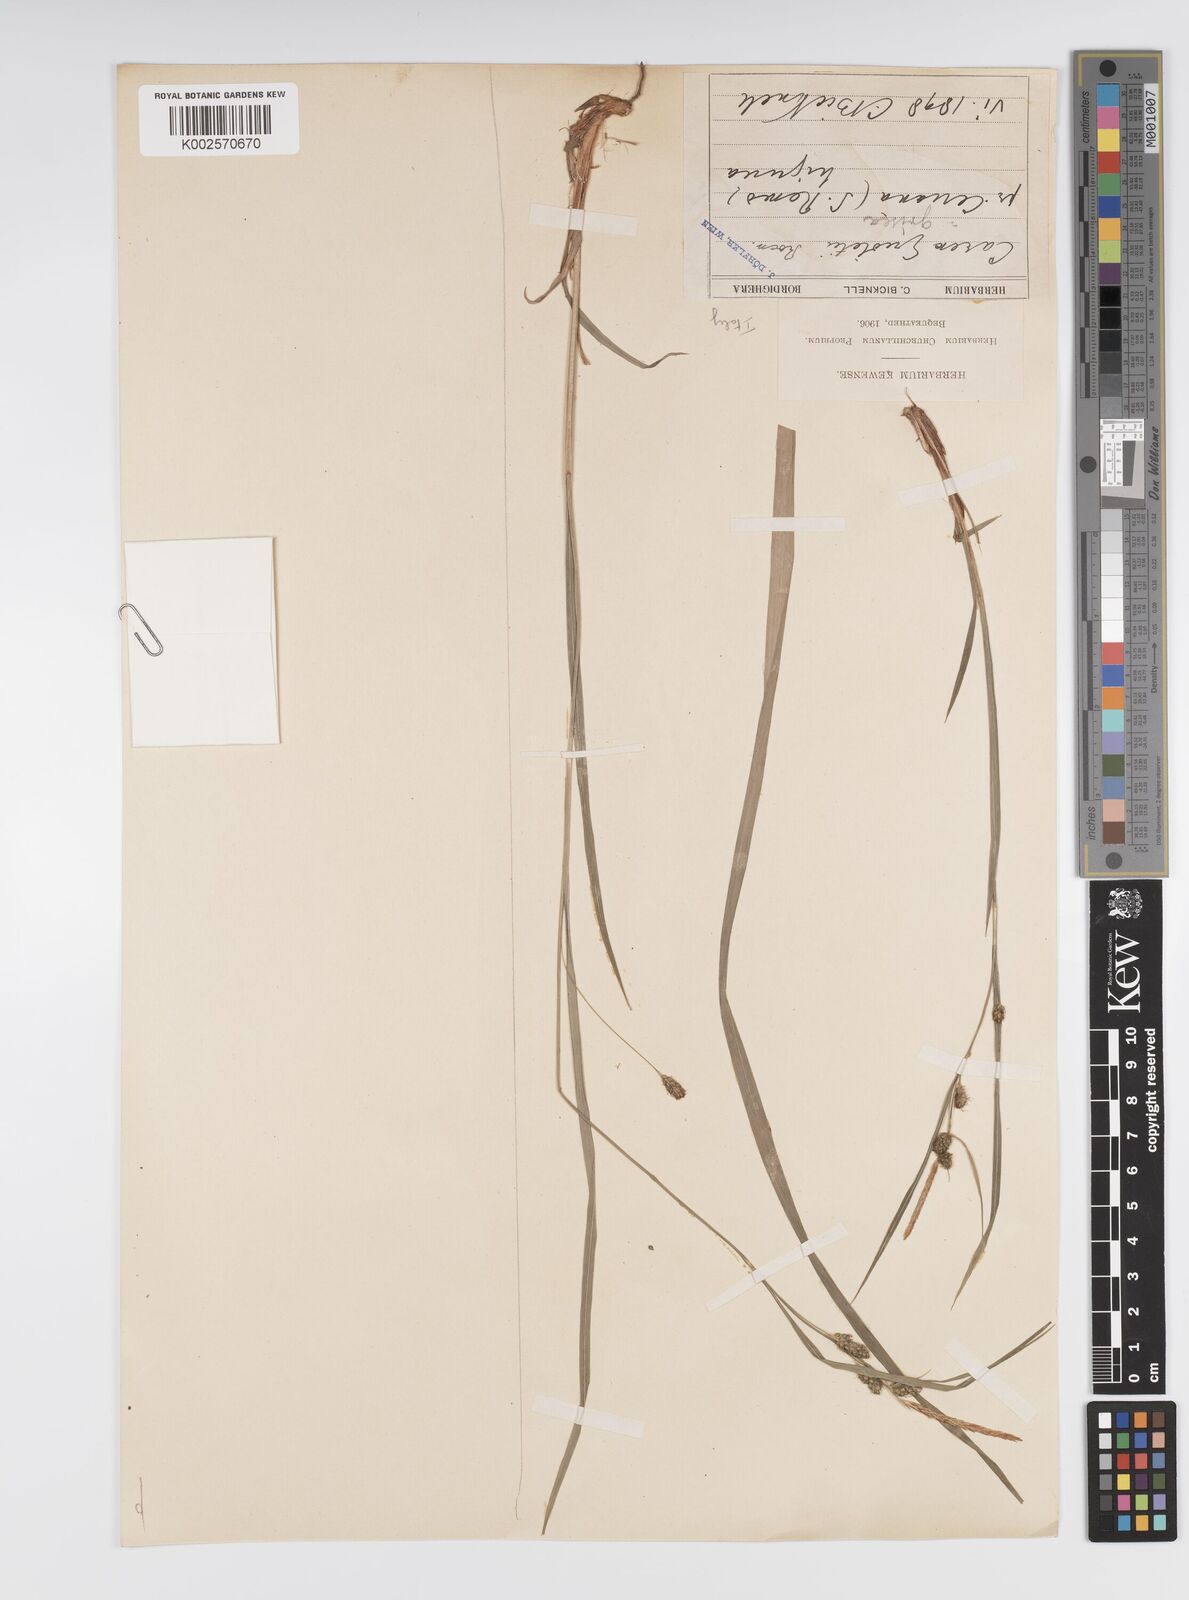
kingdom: Plantae
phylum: Tracheophyta
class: Liliopsida
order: Poales
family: Cyperaceae
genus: Carex
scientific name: Carex grioletii
